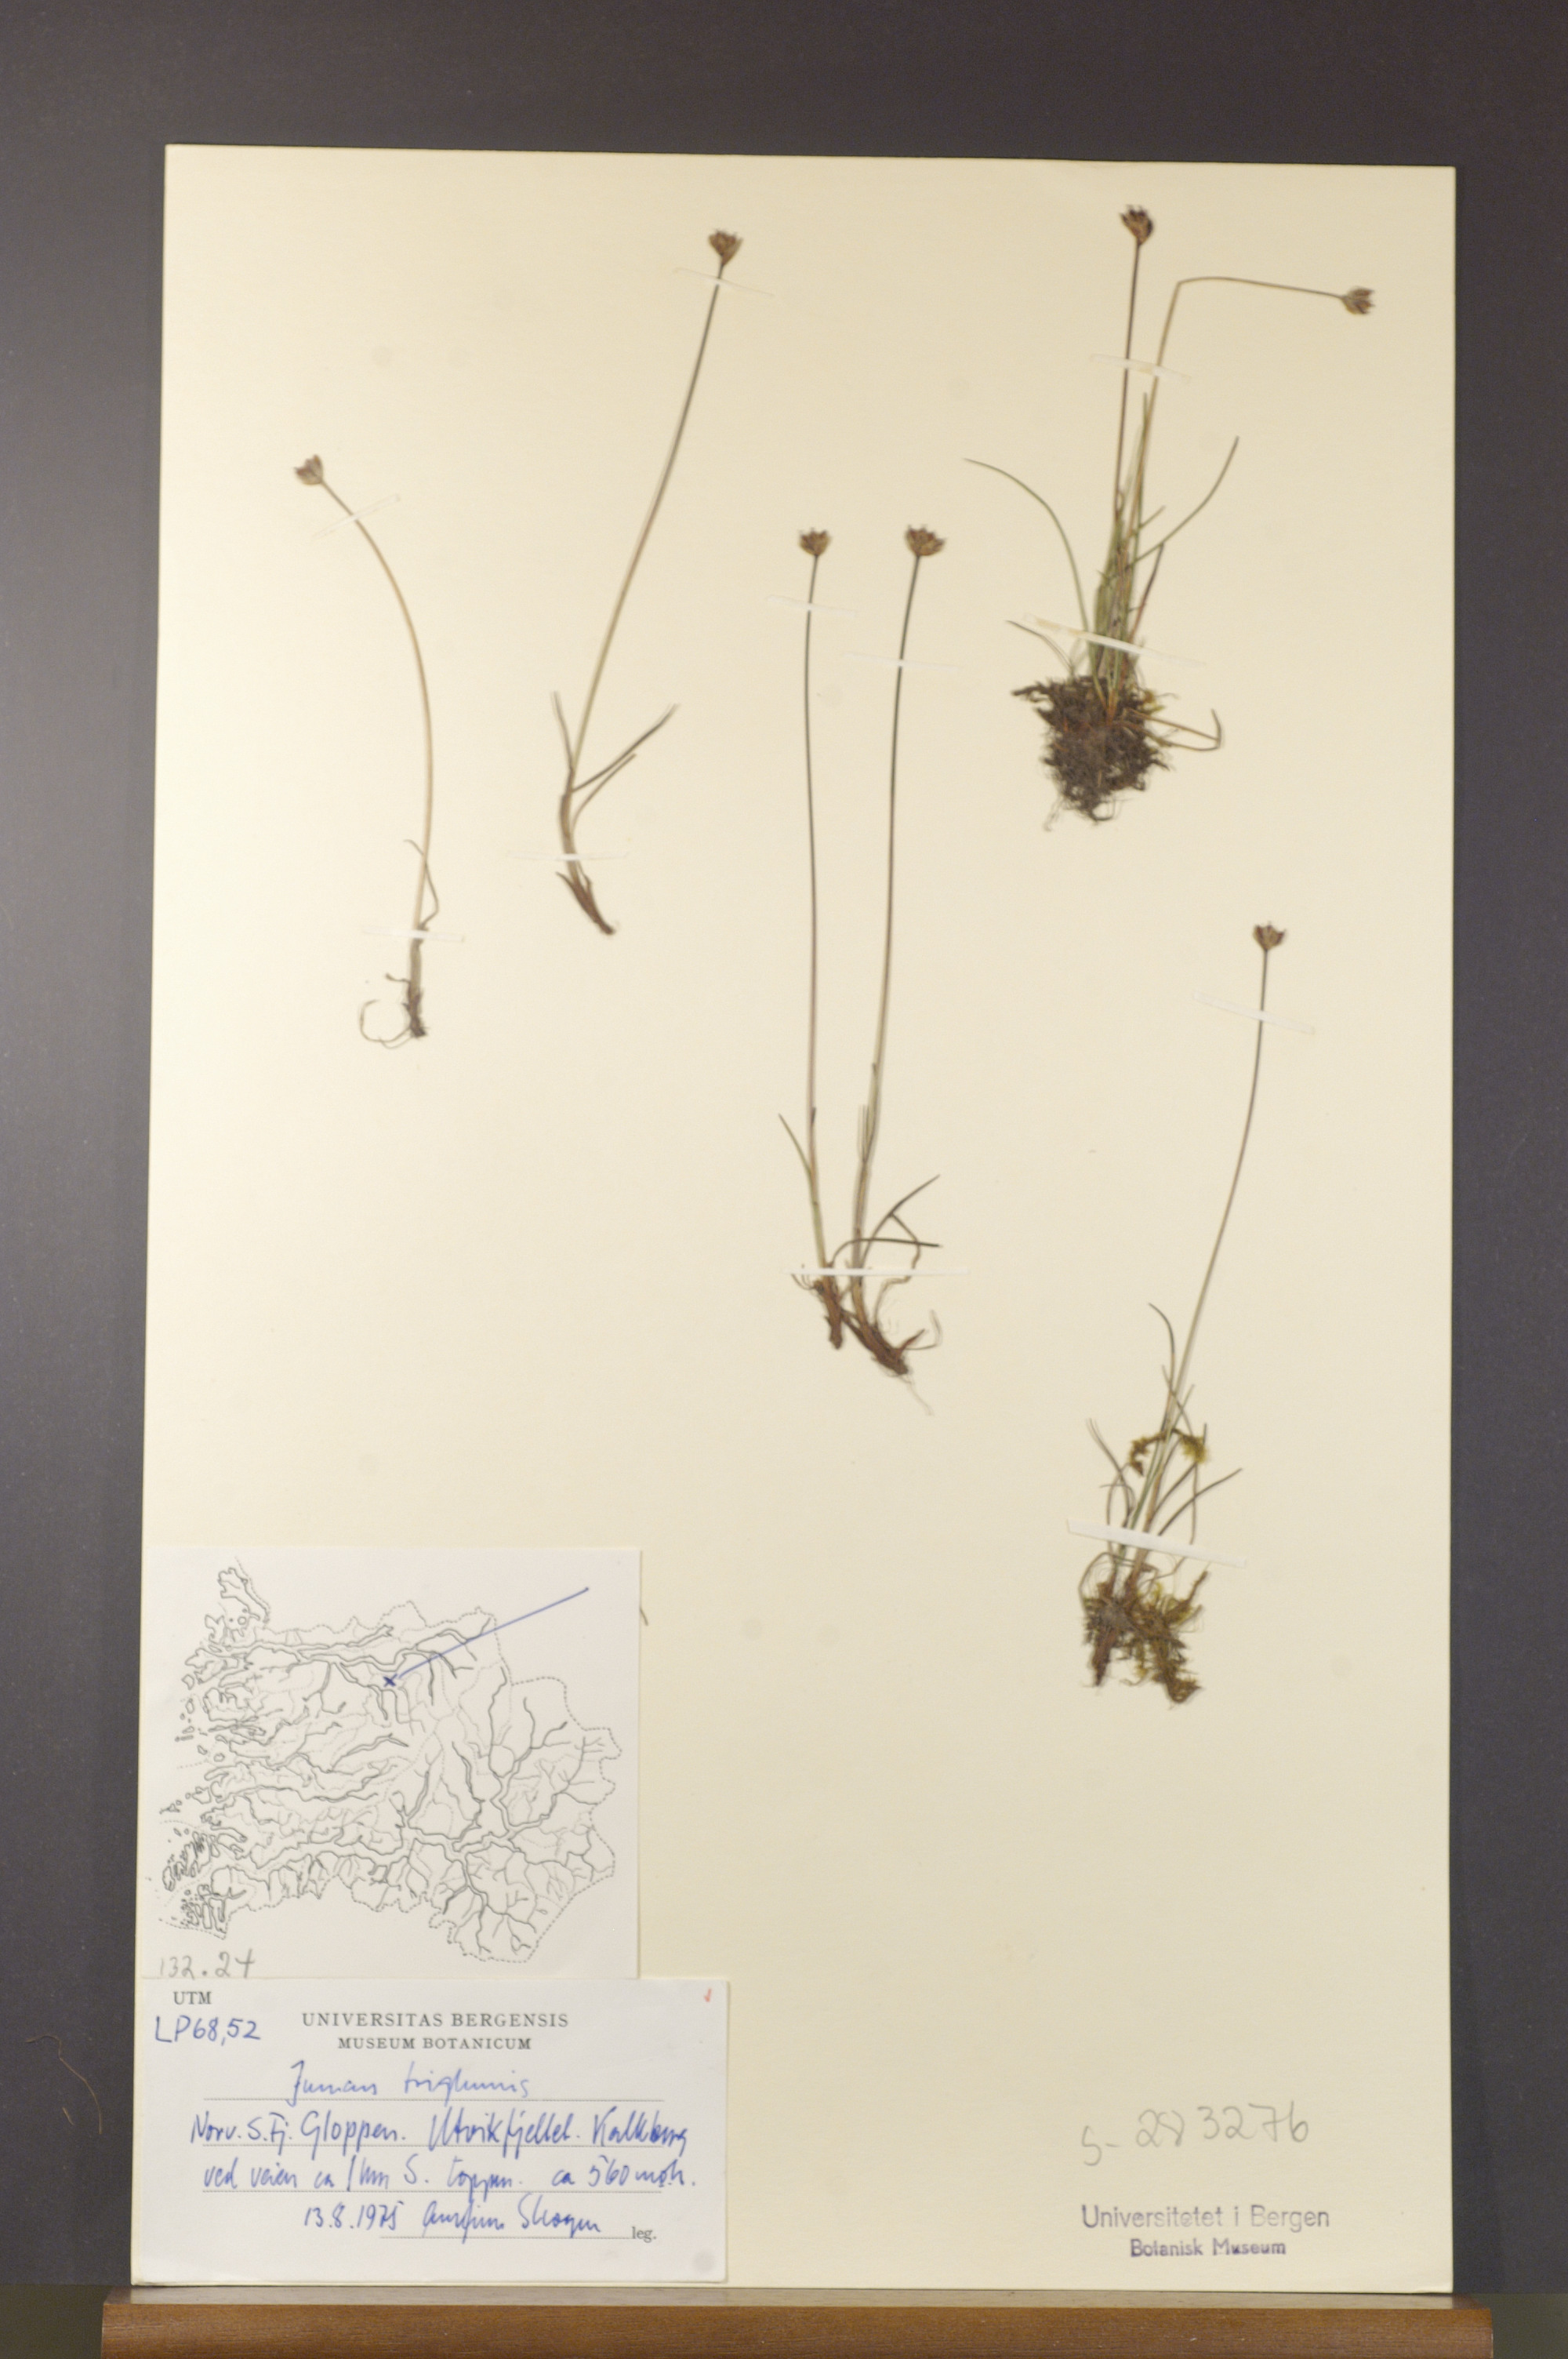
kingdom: Plantae
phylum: Tracheophyta
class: Liliopsida
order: Poales
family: Juncaceae
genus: Juncus
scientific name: Juncus triglumis
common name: Three-flowered rush
